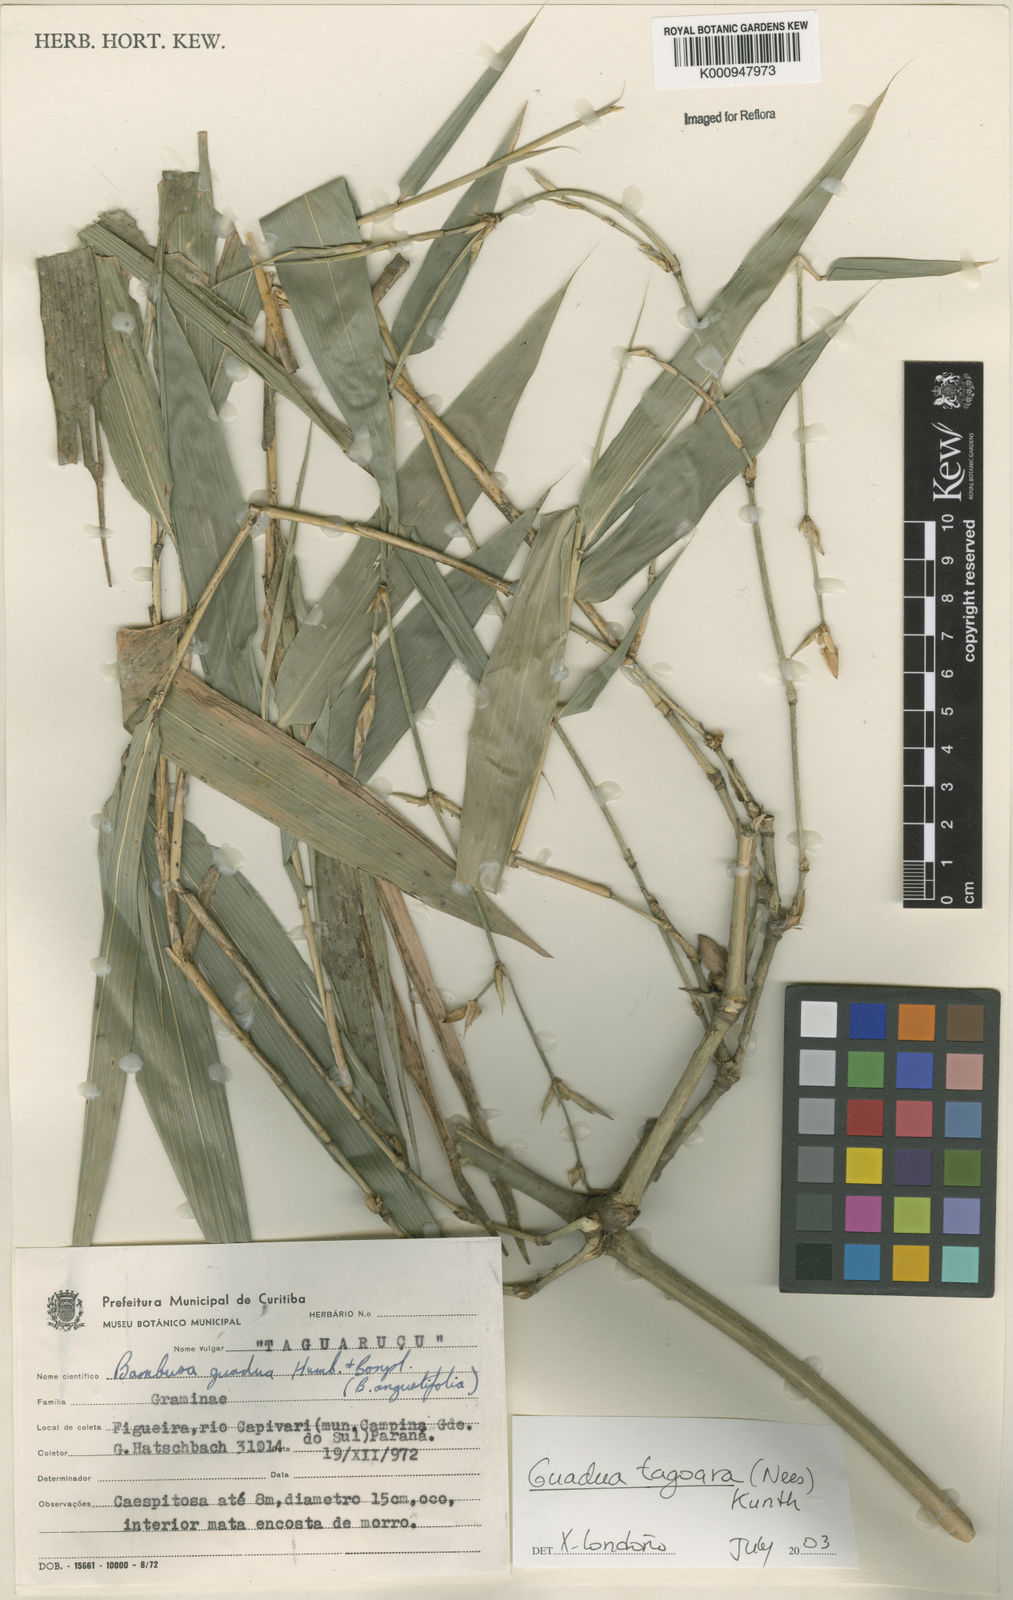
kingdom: Plantae
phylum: Tracheophyta
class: Liliopsida
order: Poales
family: Poaceae
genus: Guadua
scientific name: Guadua tagoara
